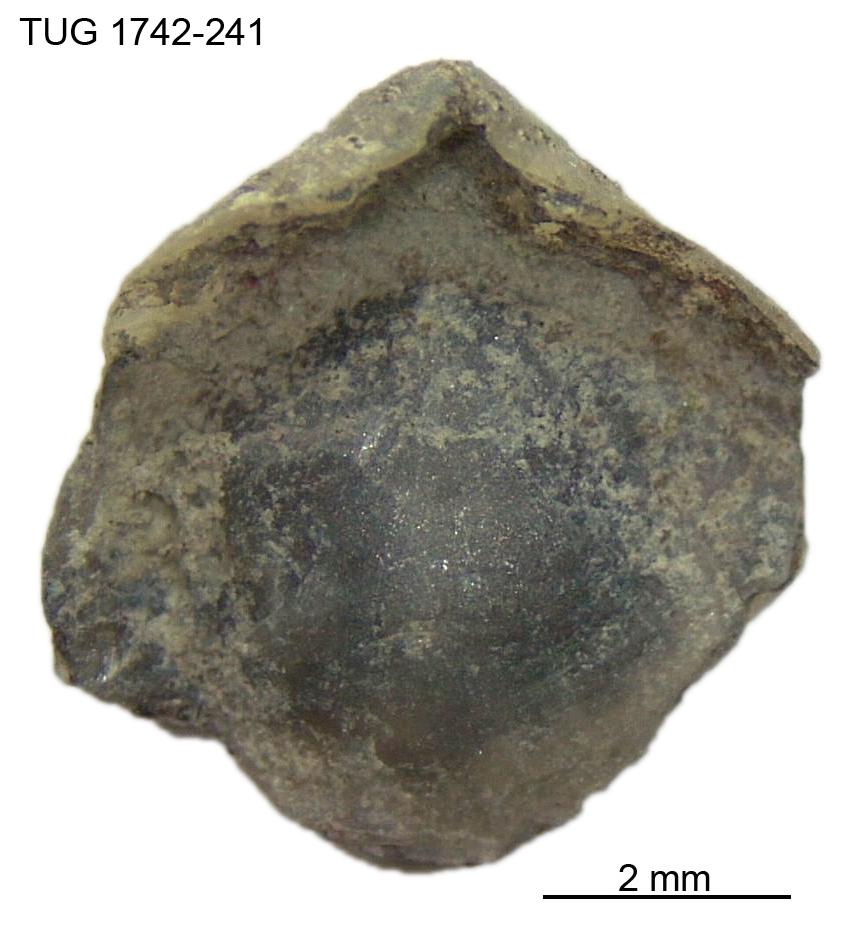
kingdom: Animalia
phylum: Brachiopoda
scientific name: Brachiopoda
